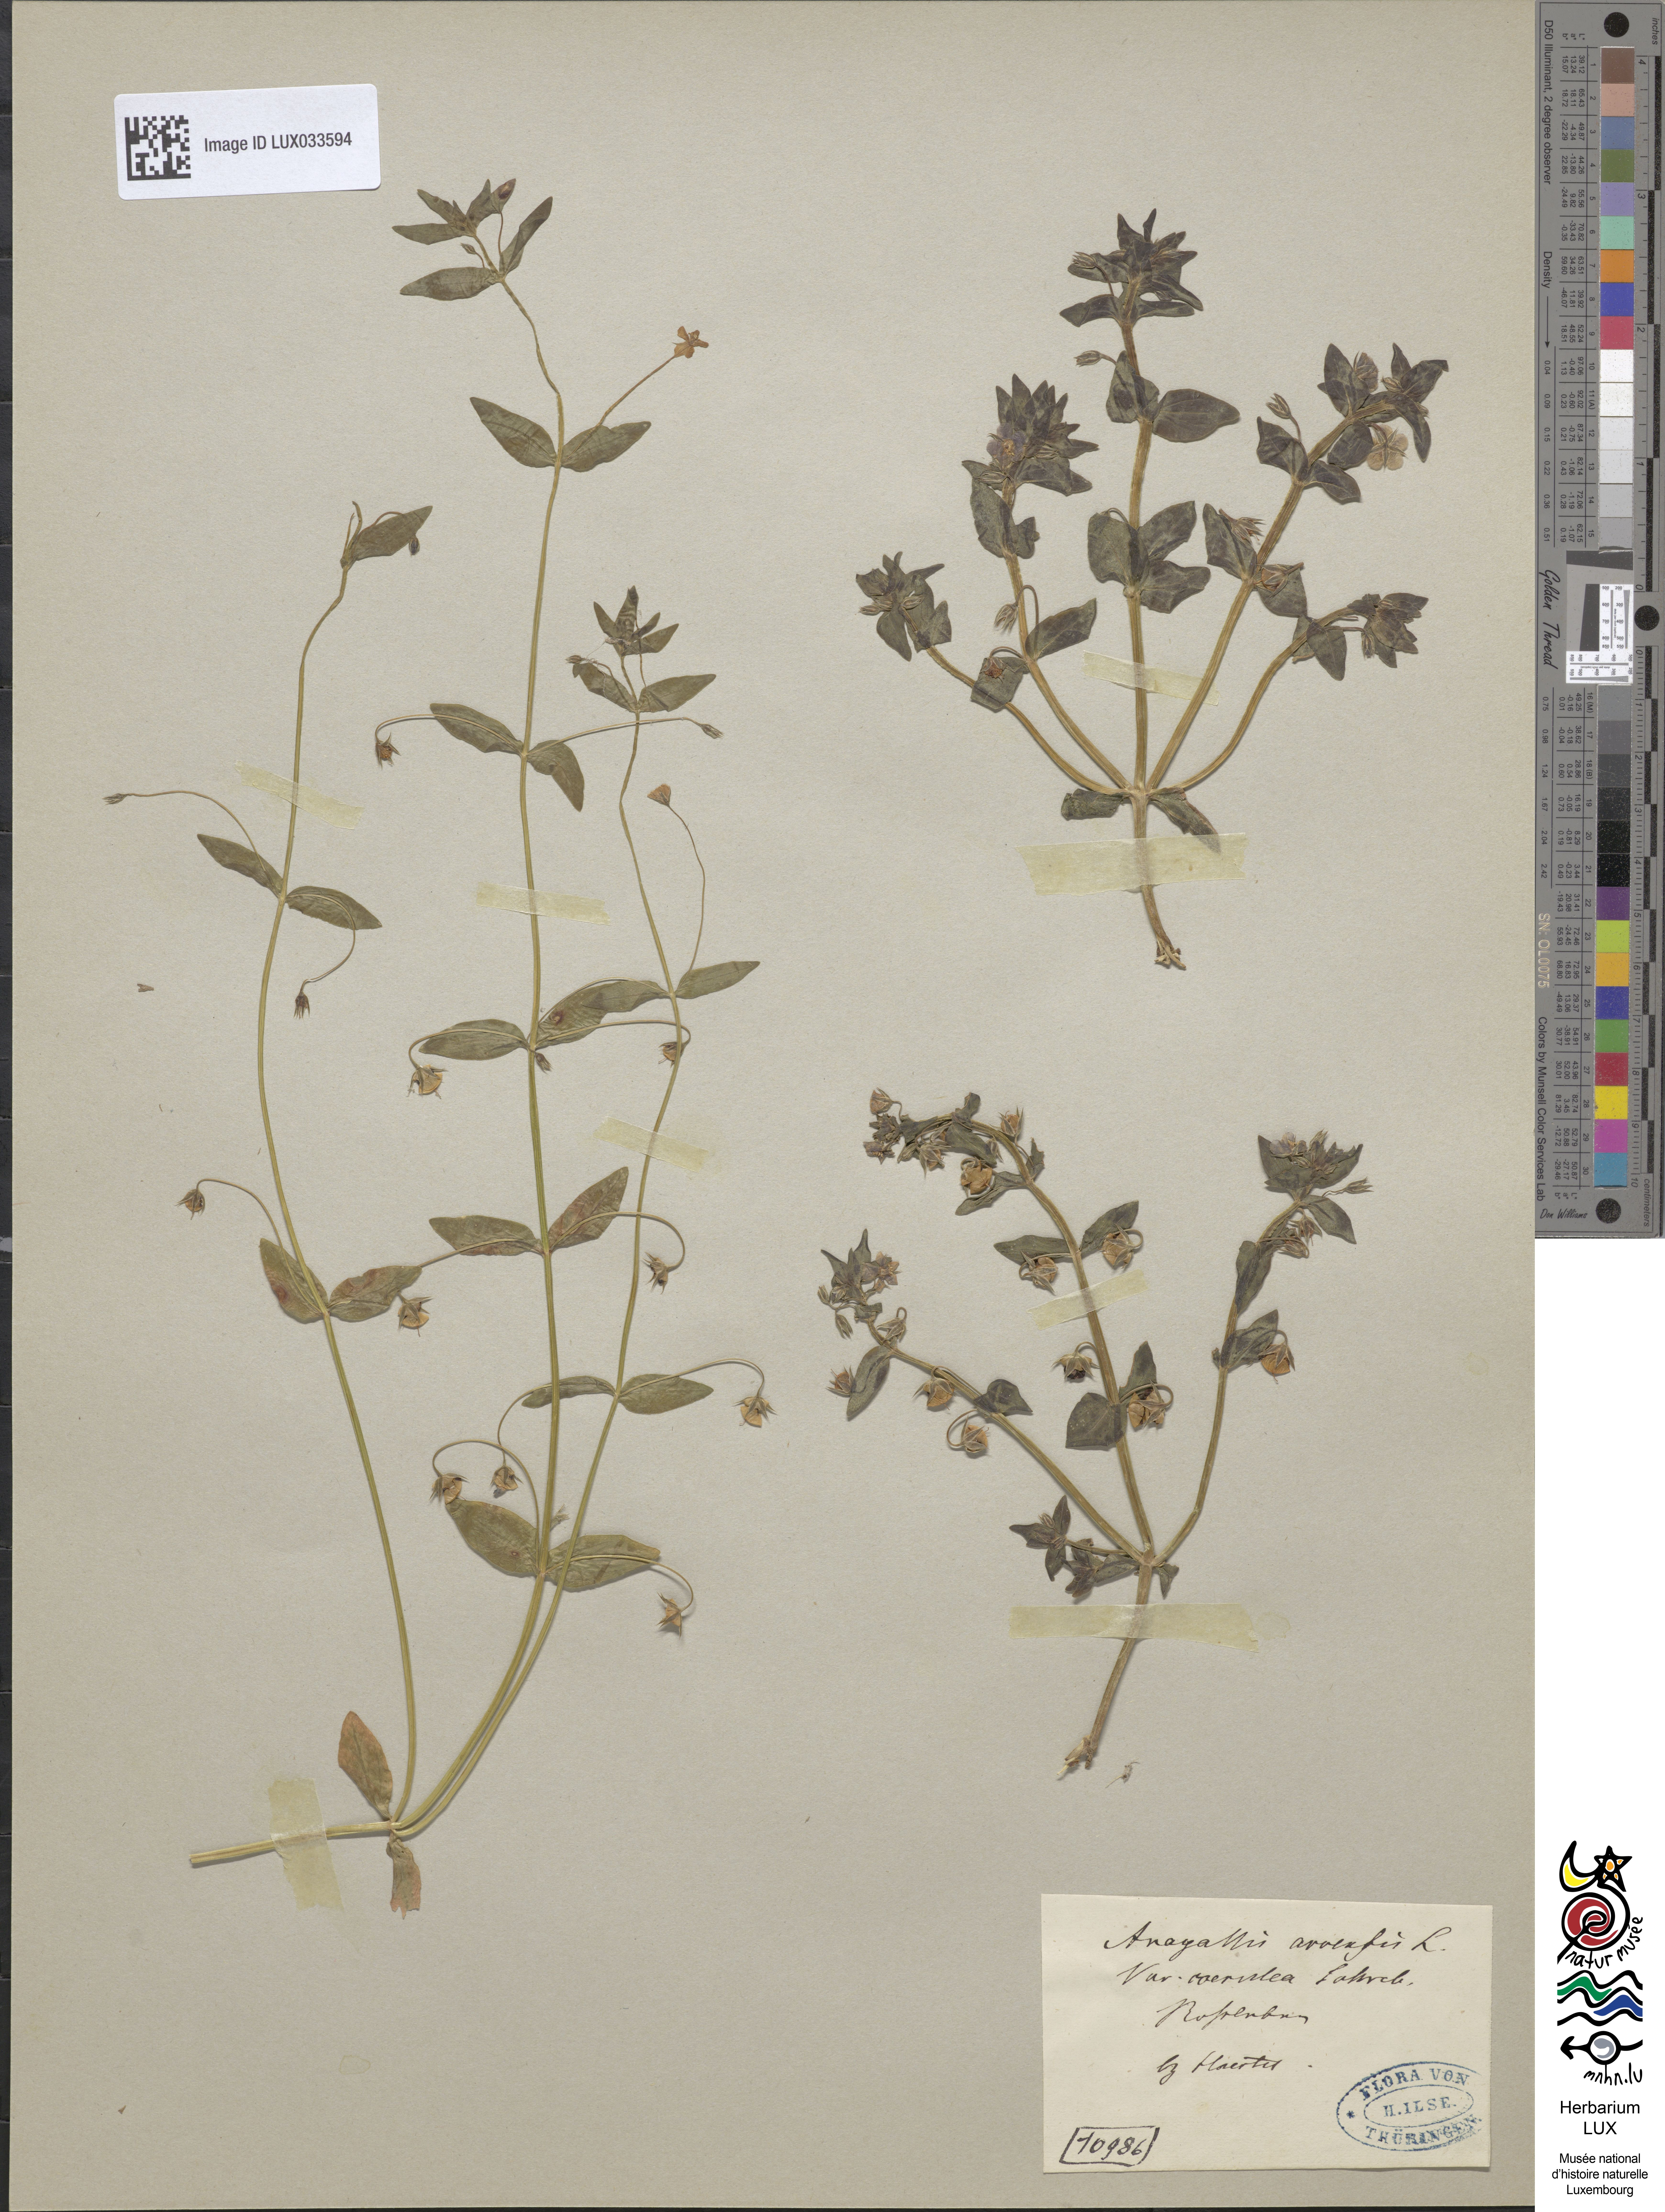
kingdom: Plantae
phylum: Tracheophyta
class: Magnoliopsida
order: Ericales
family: Primulaceae
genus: Lysimachia
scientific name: Lysimachia foemina
